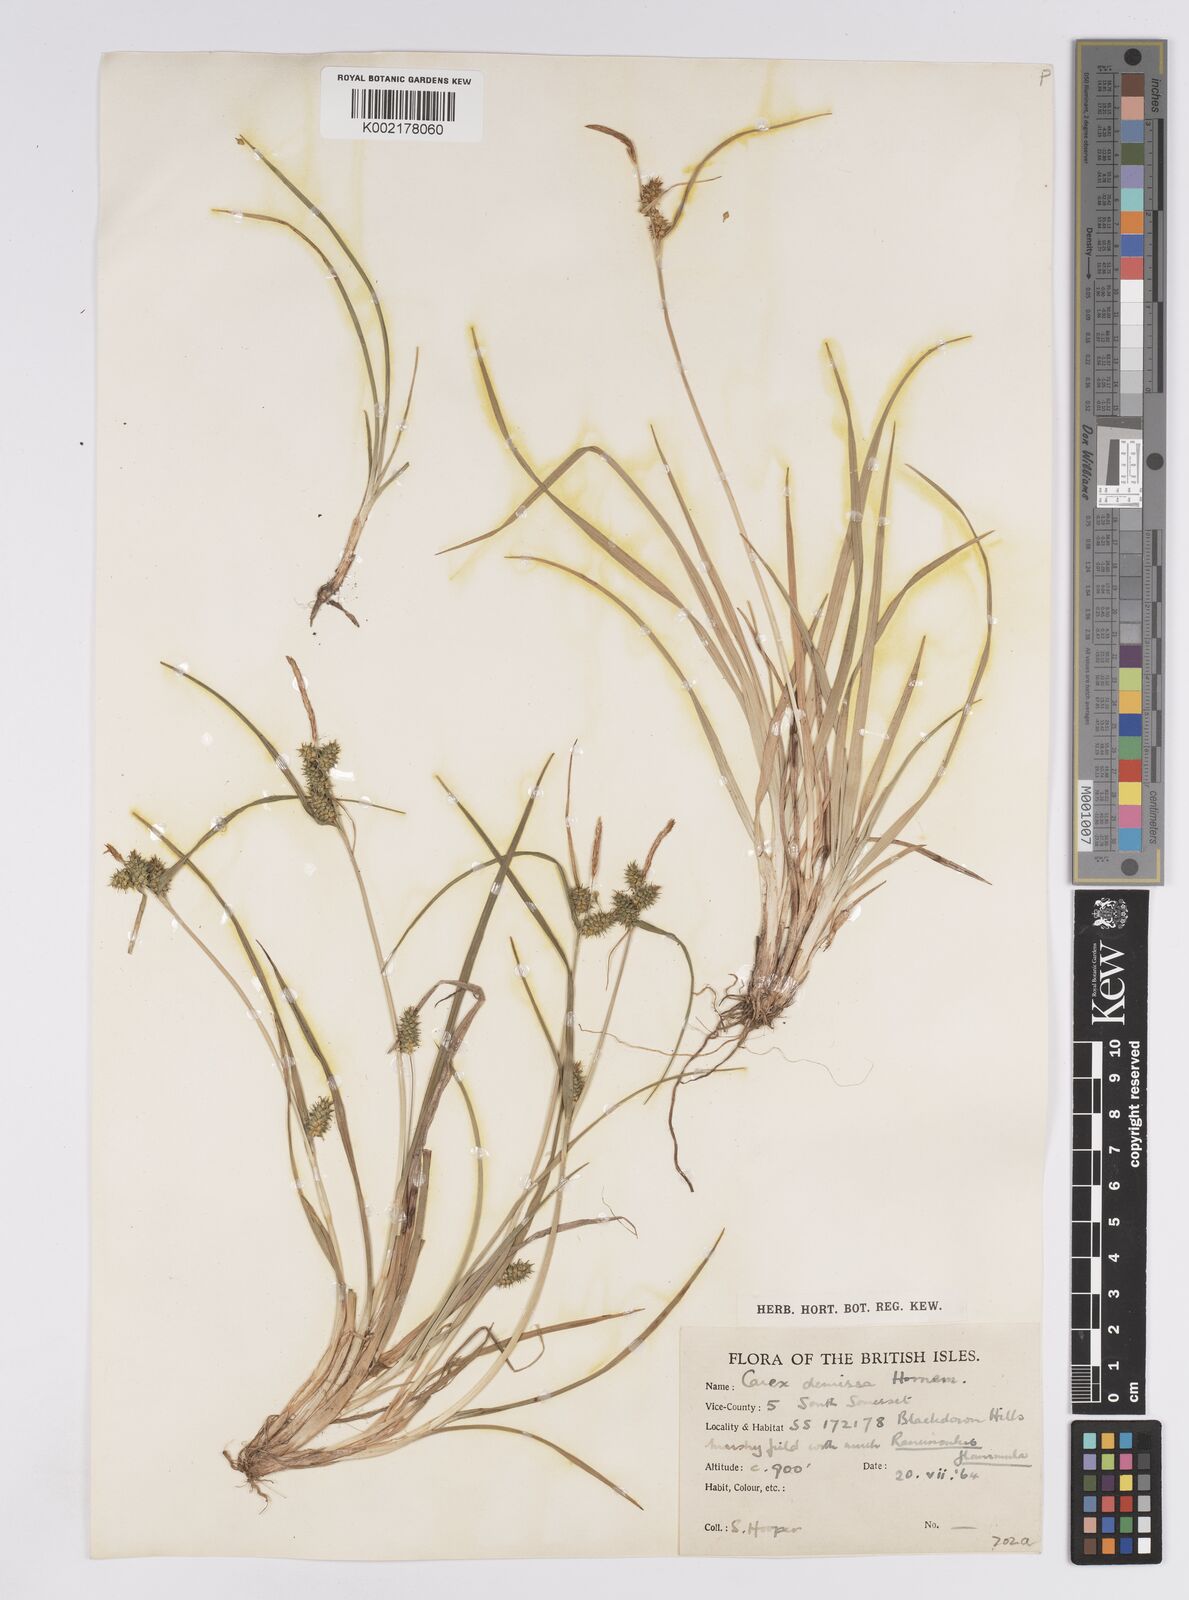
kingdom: Plantae
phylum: Tracheophyta
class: Liliopsida
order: Poales
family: Cyperaceae
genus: Carex
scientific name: Carex demissa
